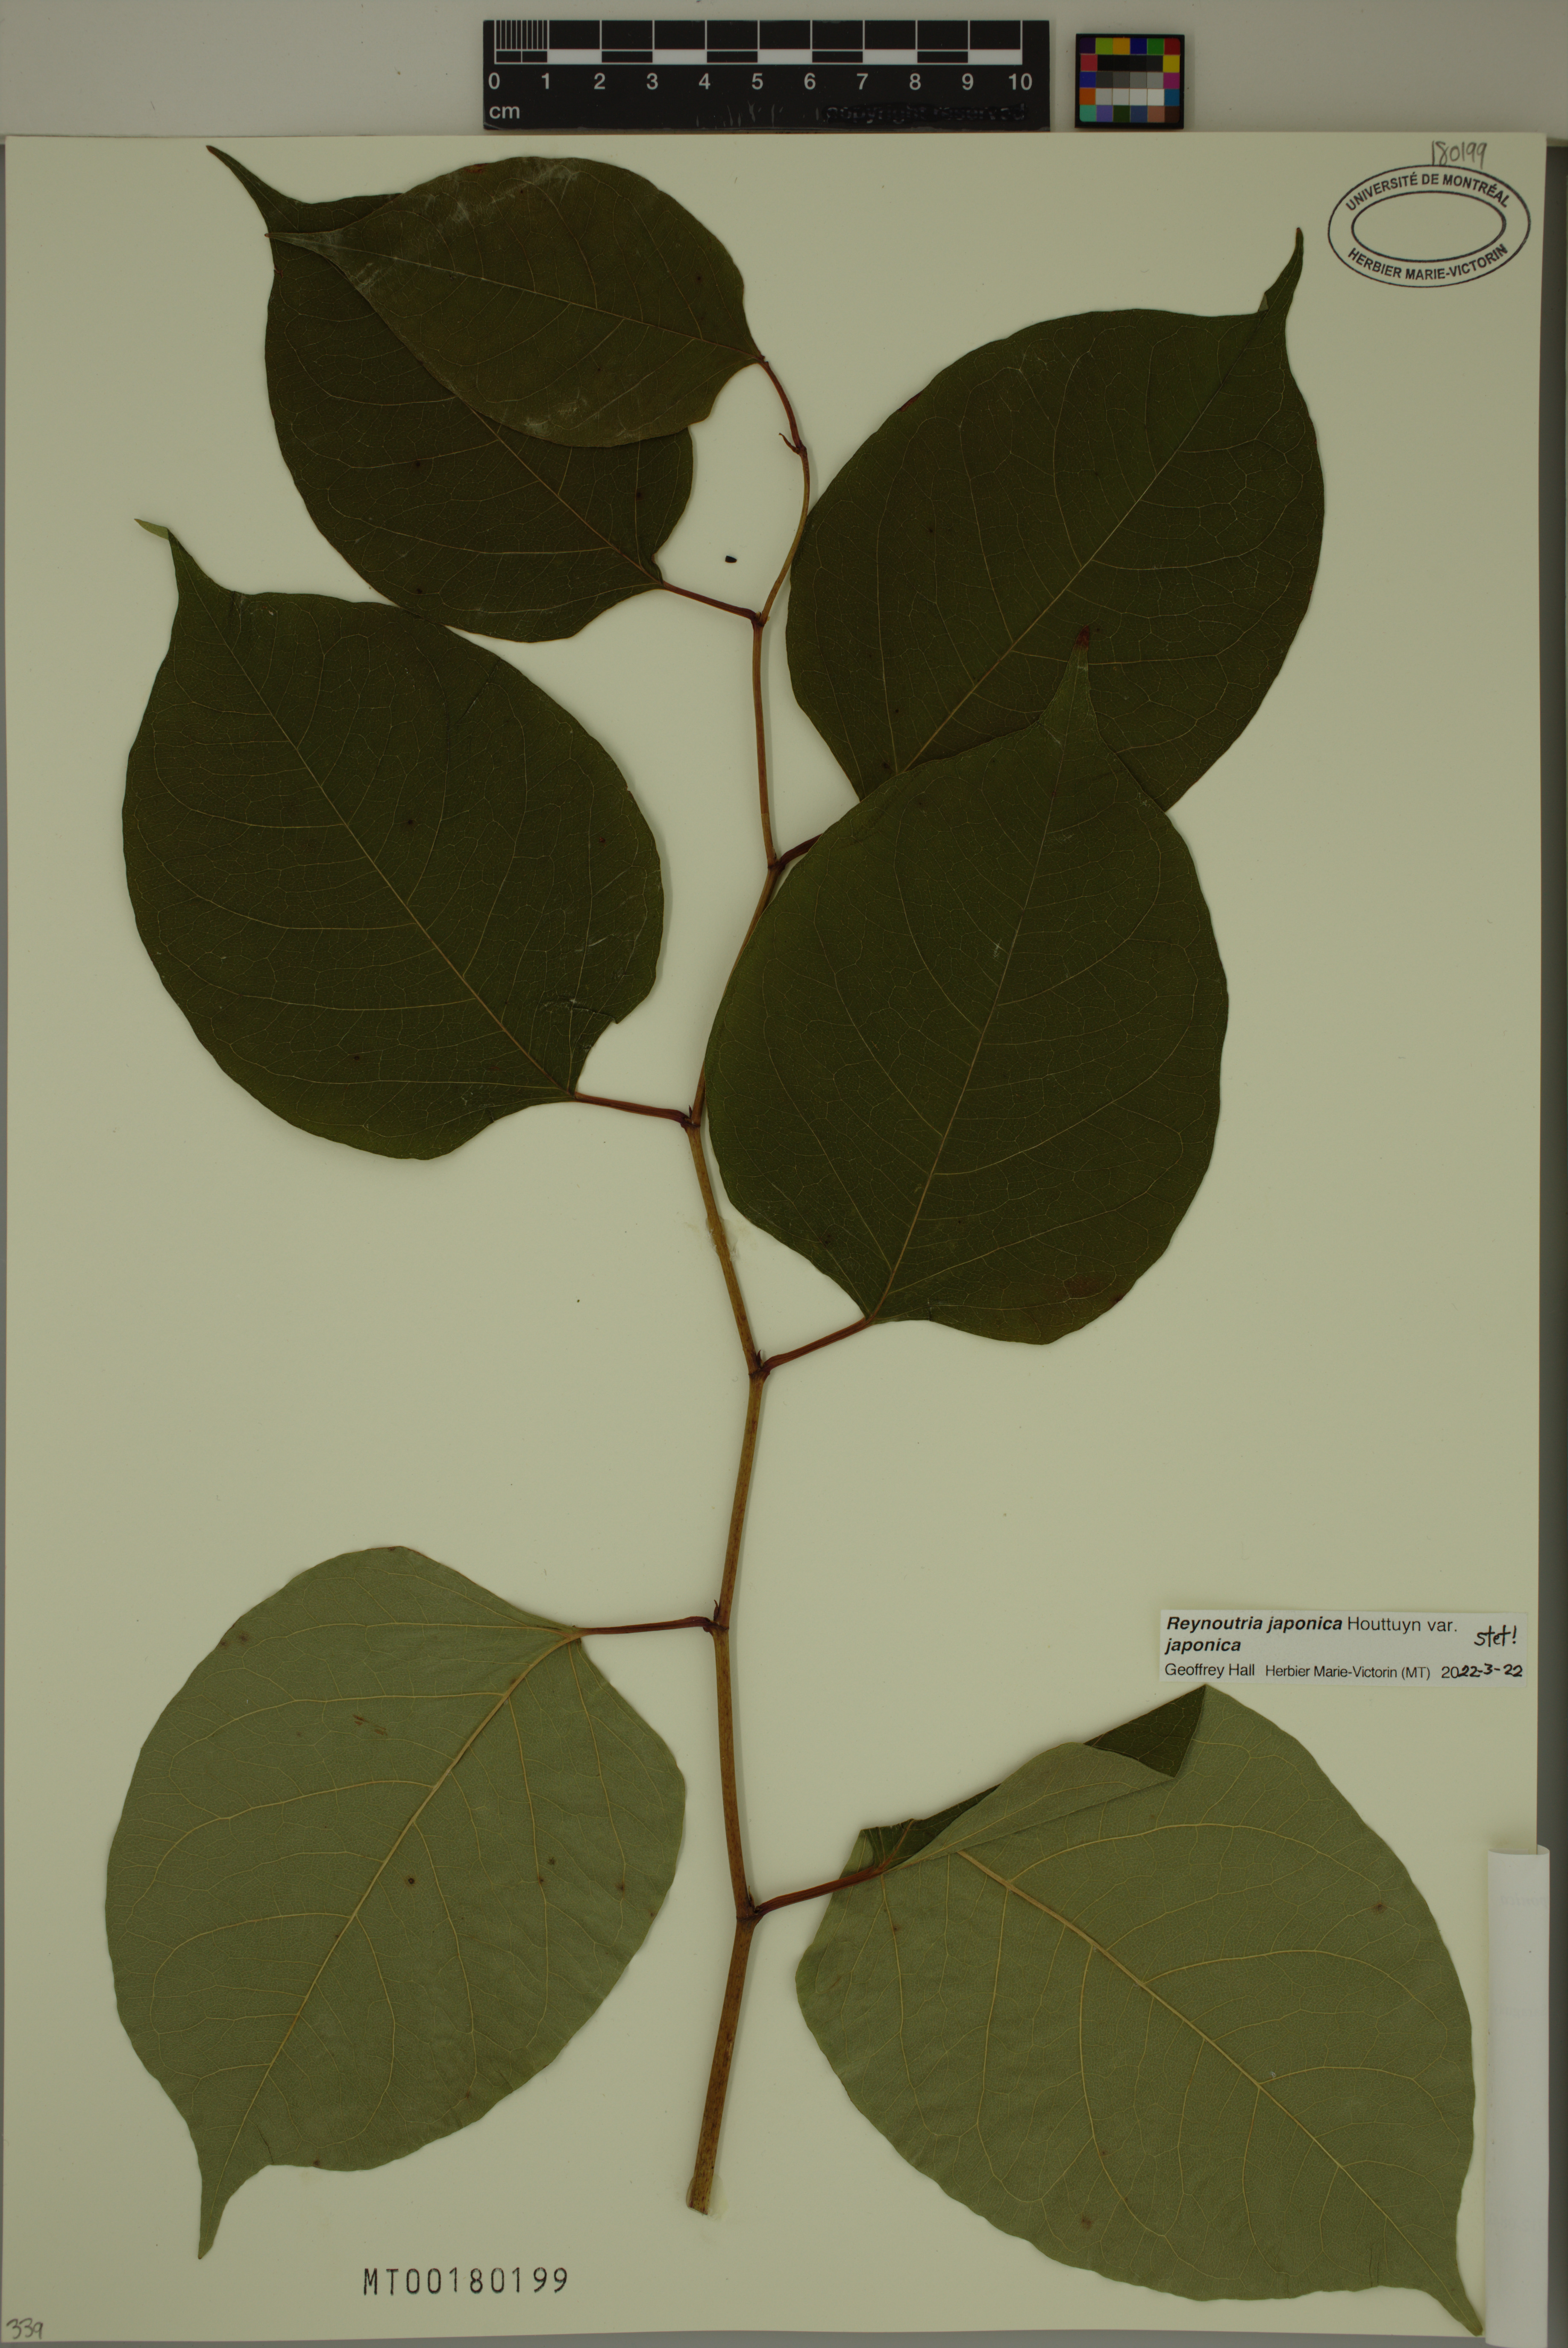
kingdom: Plantae
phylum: Tracheophyta
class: Magnoliopsida
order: Caryophyllales
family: Polygonaceae
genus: Reynoutria
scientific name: Reynoutria japonica
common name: Japanese knotweed
